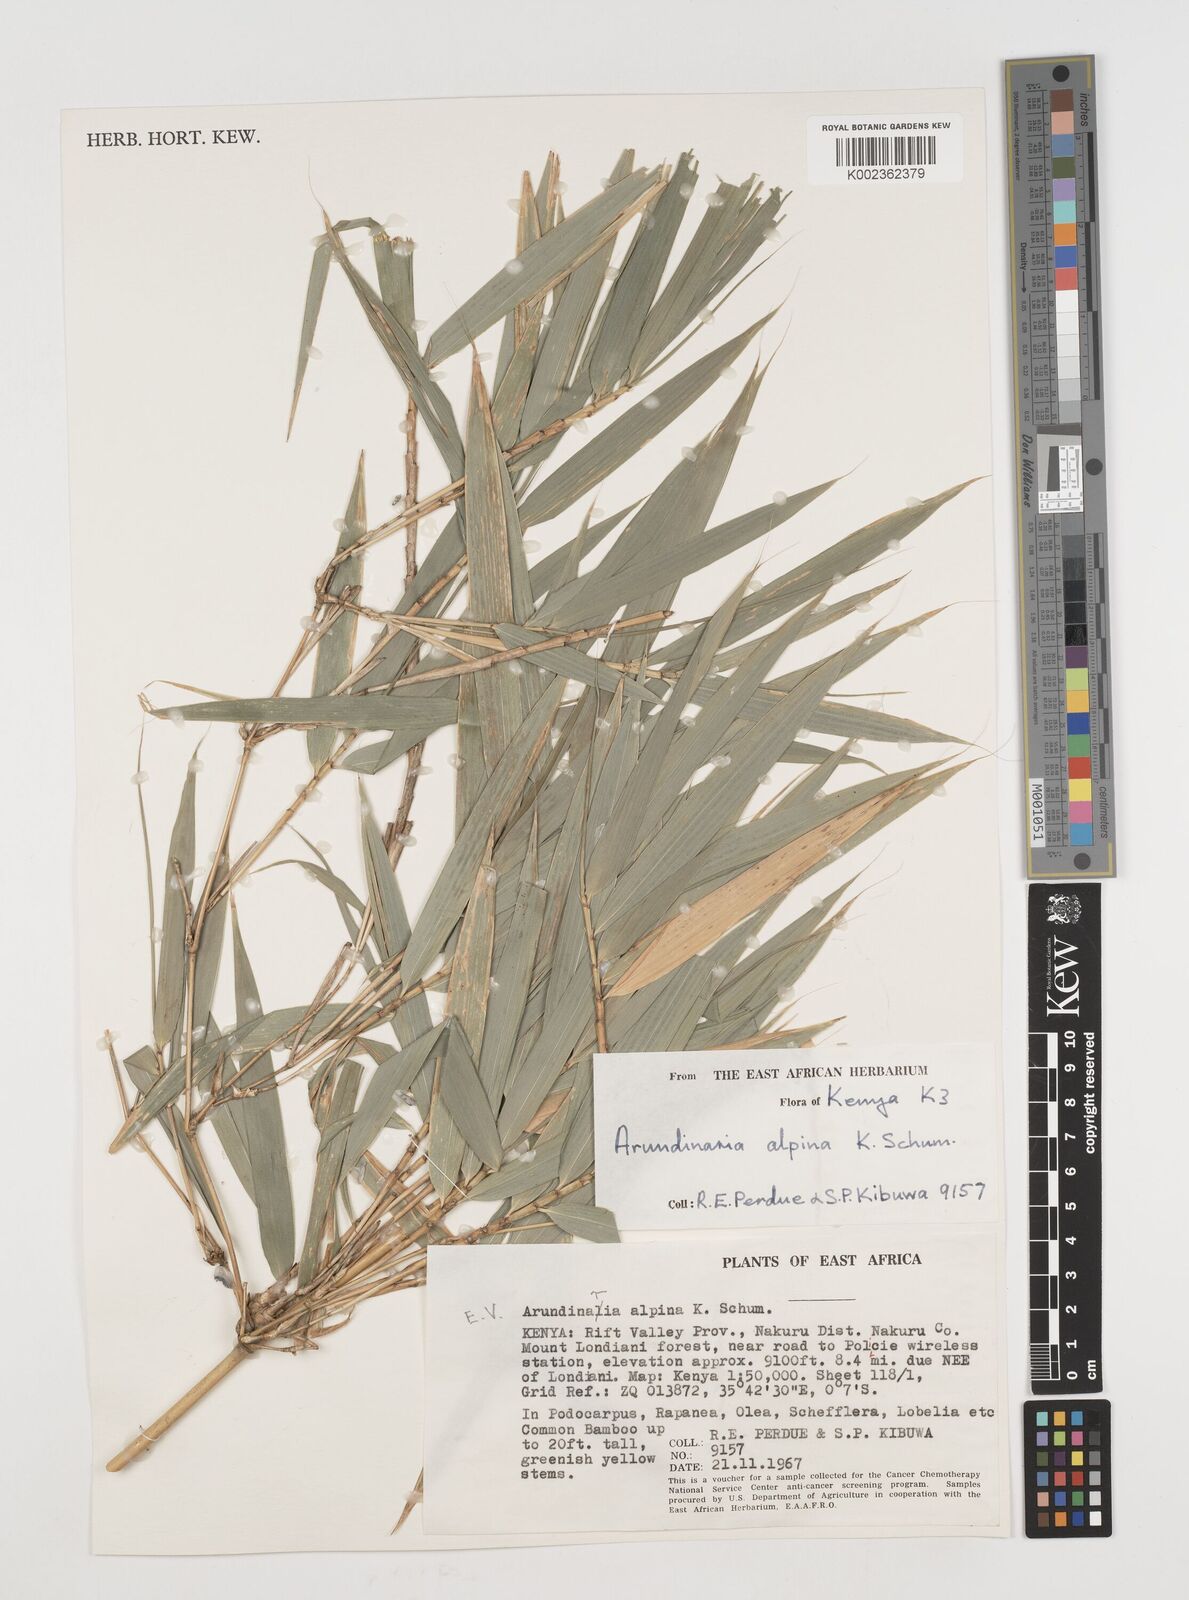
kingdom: Plantae
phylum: Tracheophyta
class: Liliopsida
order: Poales
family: Poaceae
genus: Oldeania
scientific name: Oldeania alpina
